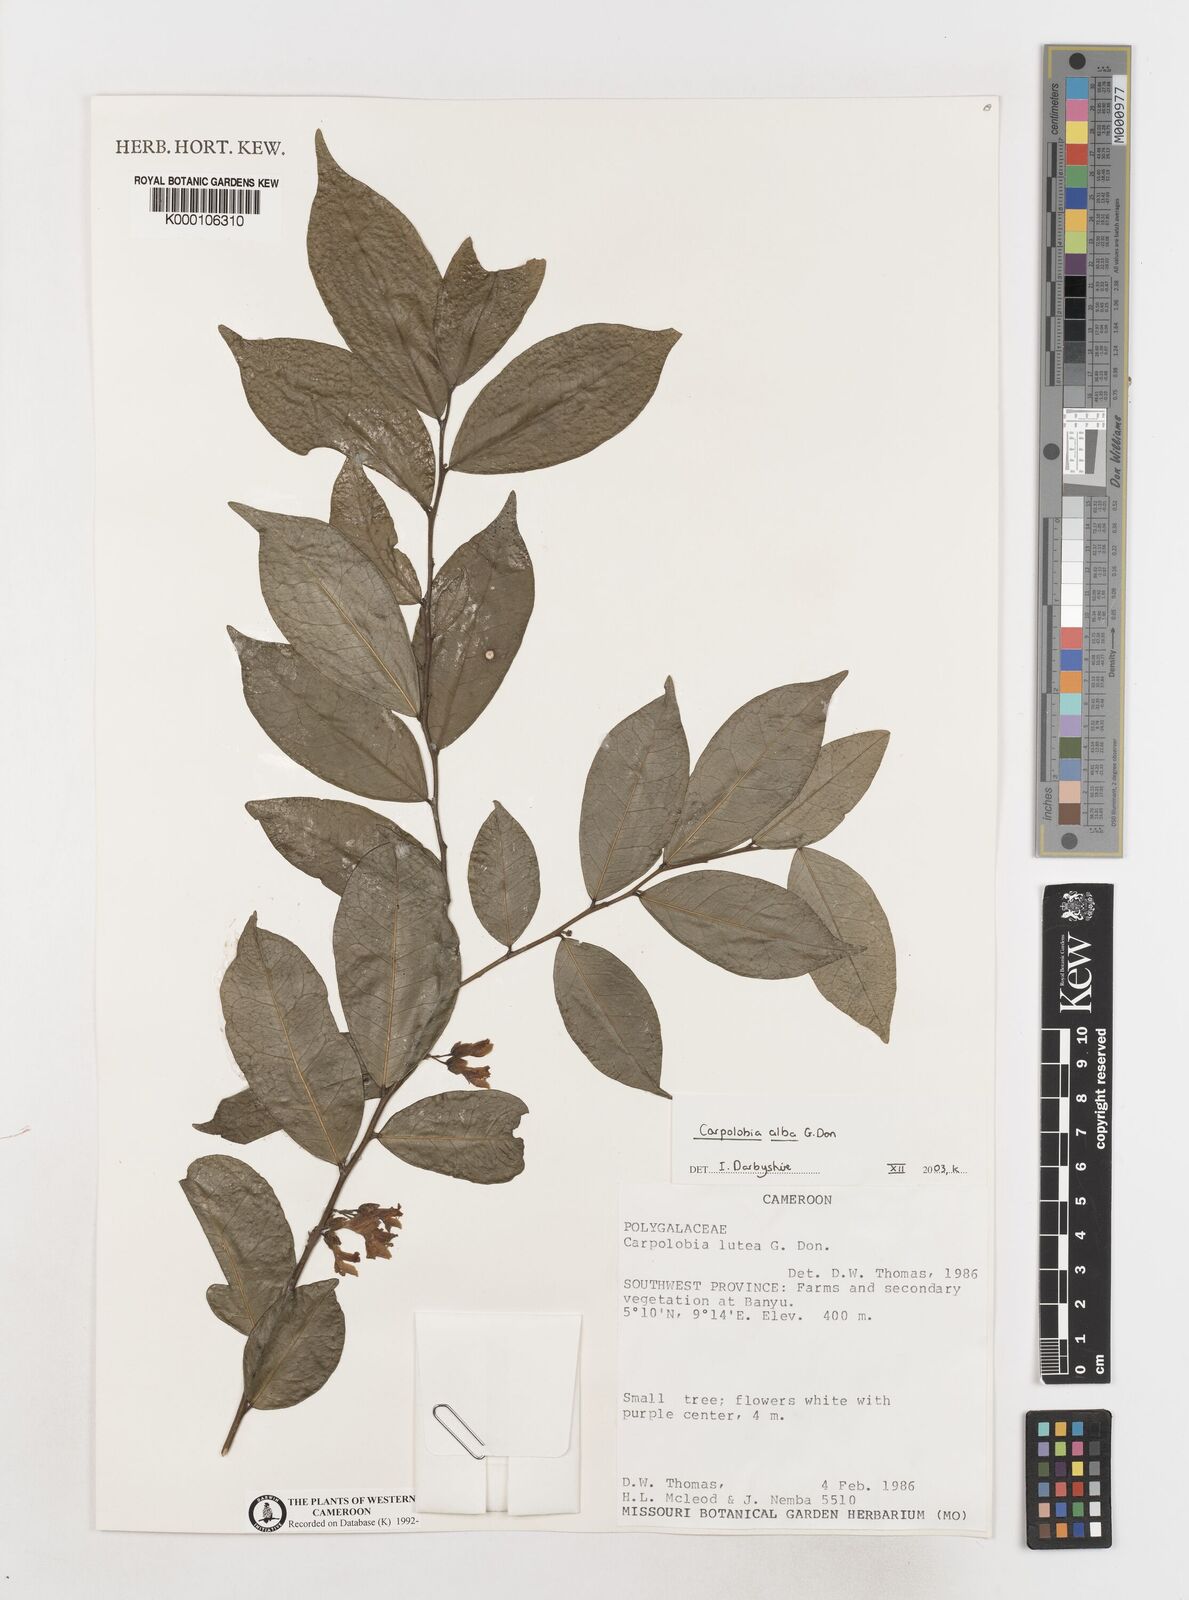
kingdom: Plantae
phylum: Tracheophyta
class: Magnoliopsida
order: Fabales
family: Polygalaceae
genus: Carpolobia
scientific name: Carpolobia alba
